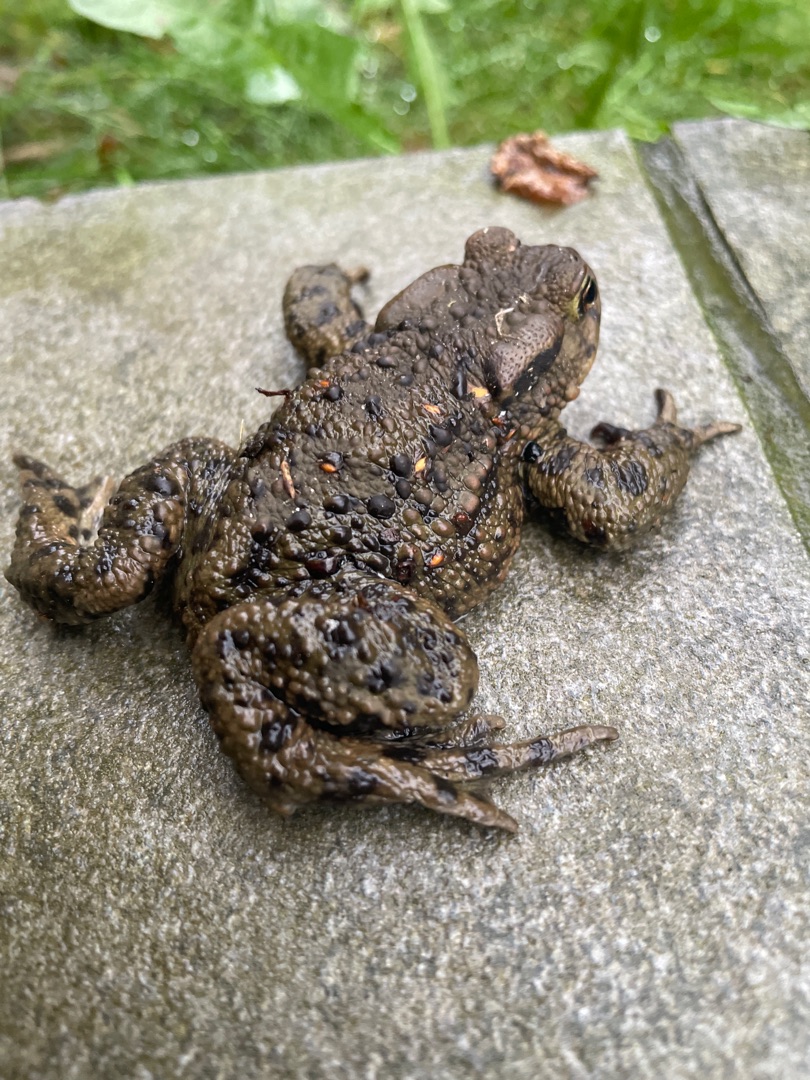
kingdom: Animalia
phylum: Chordata
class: Amphibia
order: Anura
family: Bufonidae
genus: Bufo
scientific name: Bufo bufo
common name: Skrubtudse
